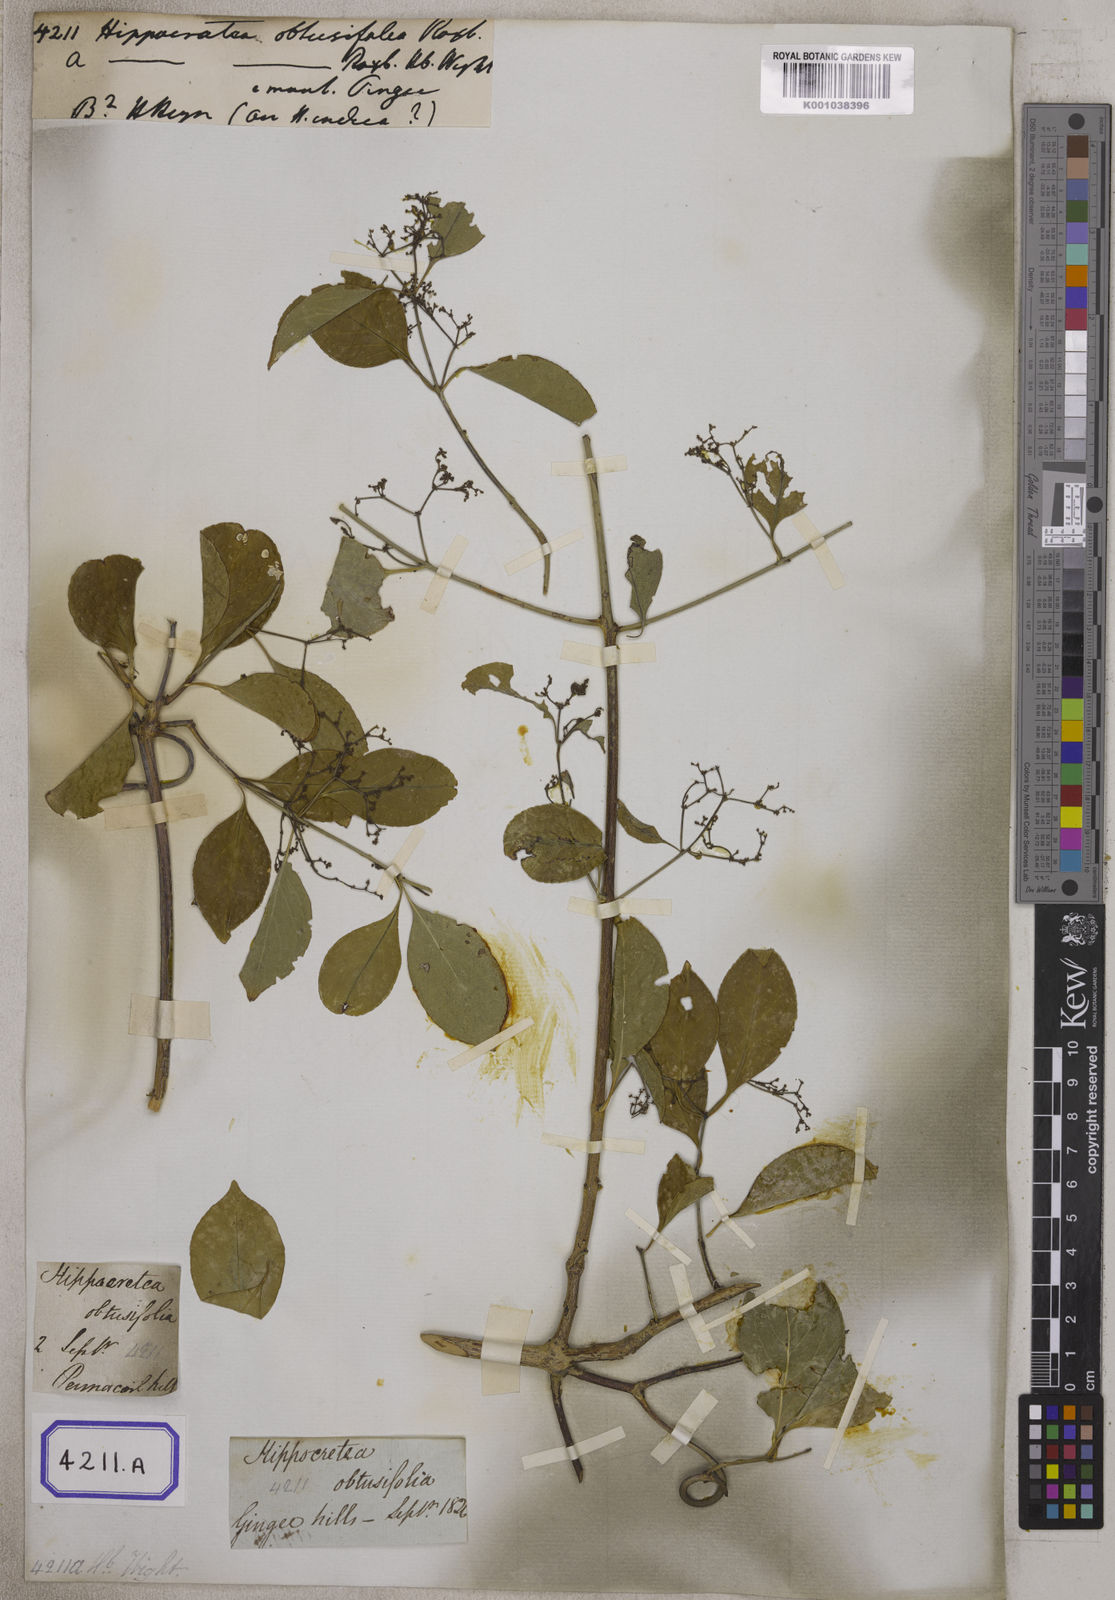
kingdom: Plantae
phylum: Tracheophyta
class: Magnoliopsida
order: Celastrales
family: Celastraceae
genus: Loeseneriella
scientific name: Loeseneriella obtusifolia
